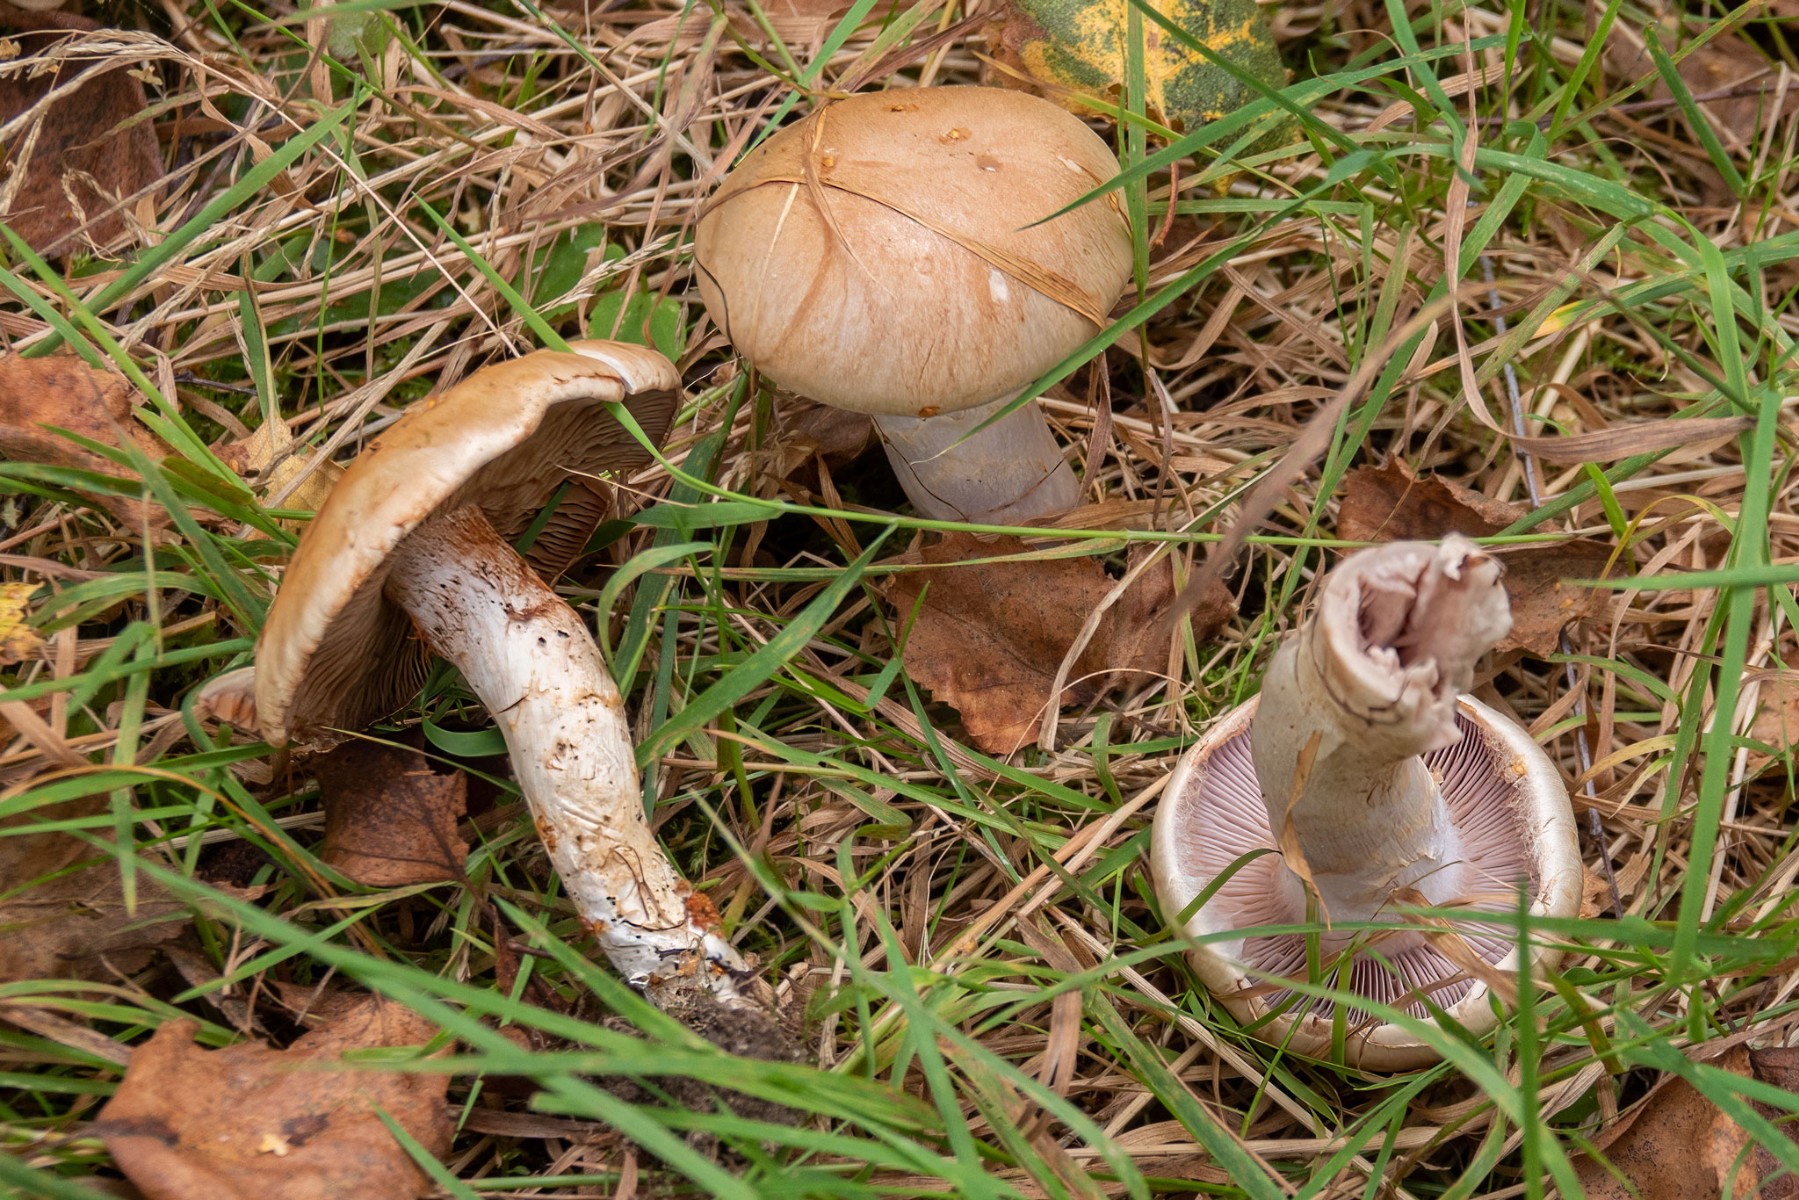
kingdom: Fungi
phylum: Basidiomycota
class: Agaricomycetes
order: Agaricales
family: Cortinariaceae
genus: Cortinarius
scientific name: Cortinarius
